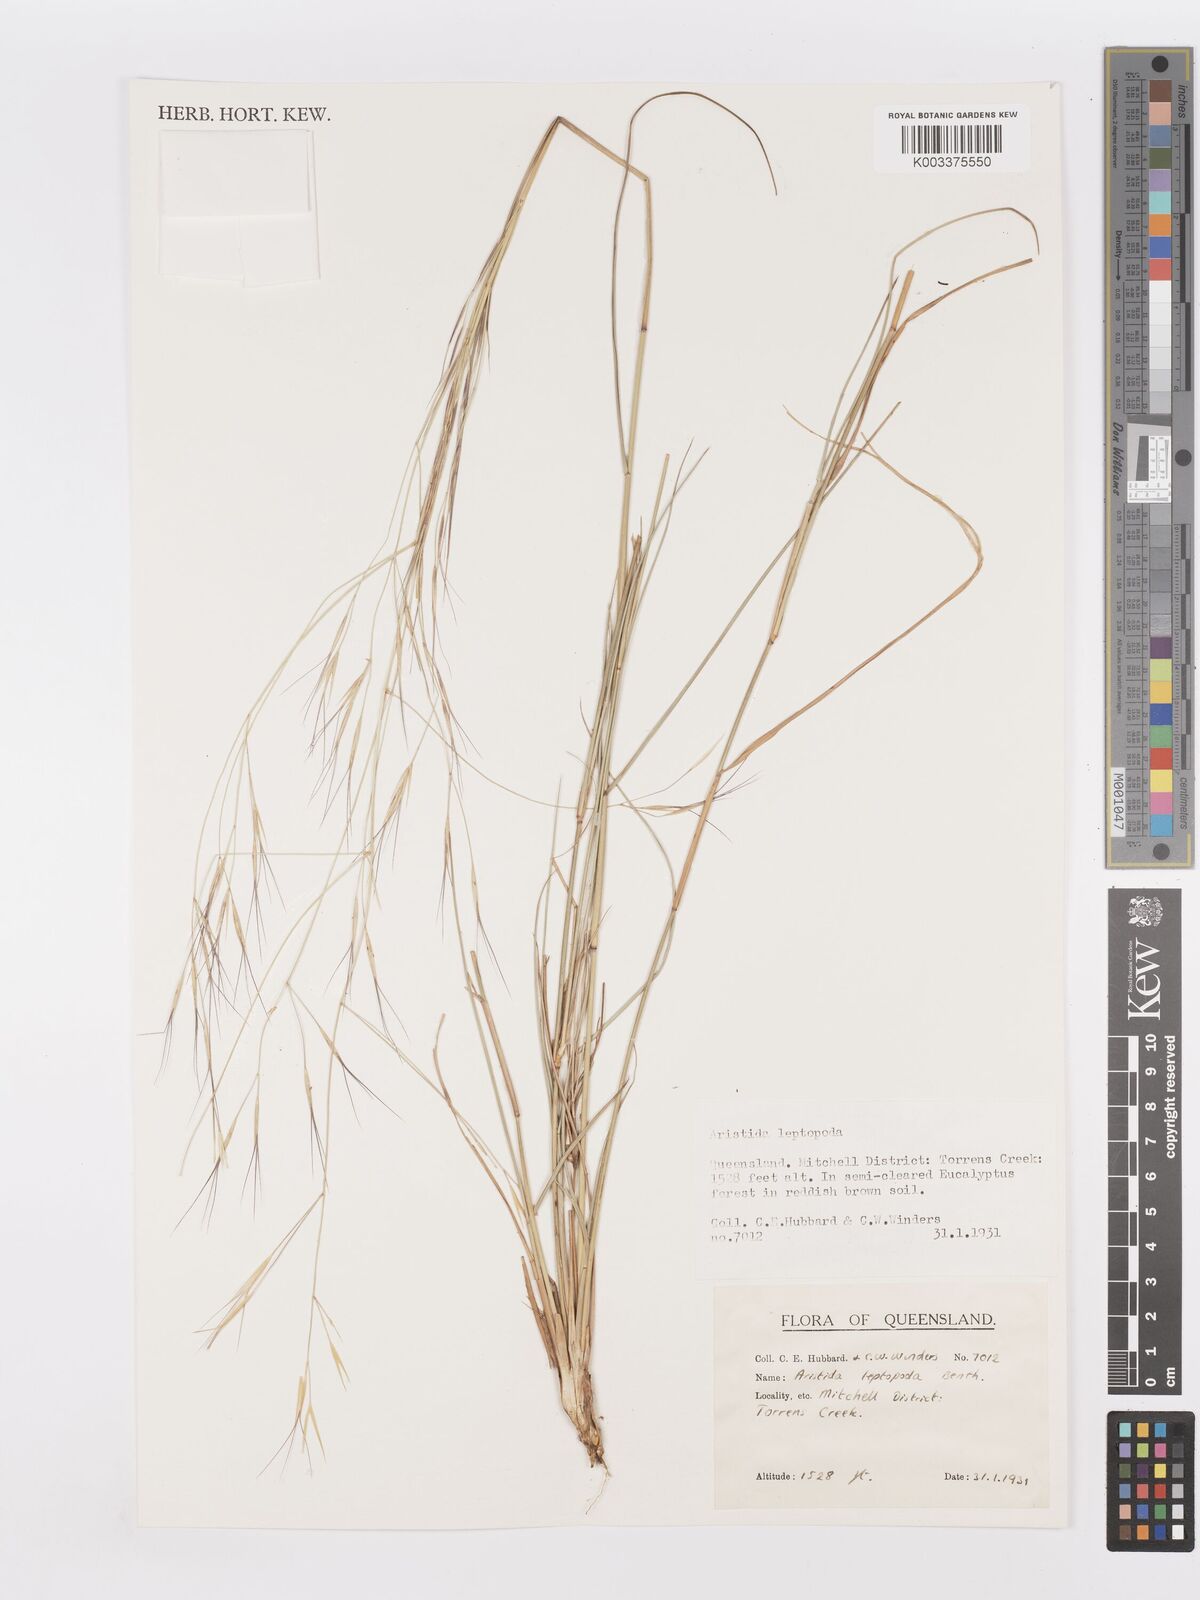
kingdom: Plantae
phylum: Tracheophyta
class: Liliopsida
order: Poales
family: Poaceae
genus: Aristida
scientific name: Aristida leptopoda
